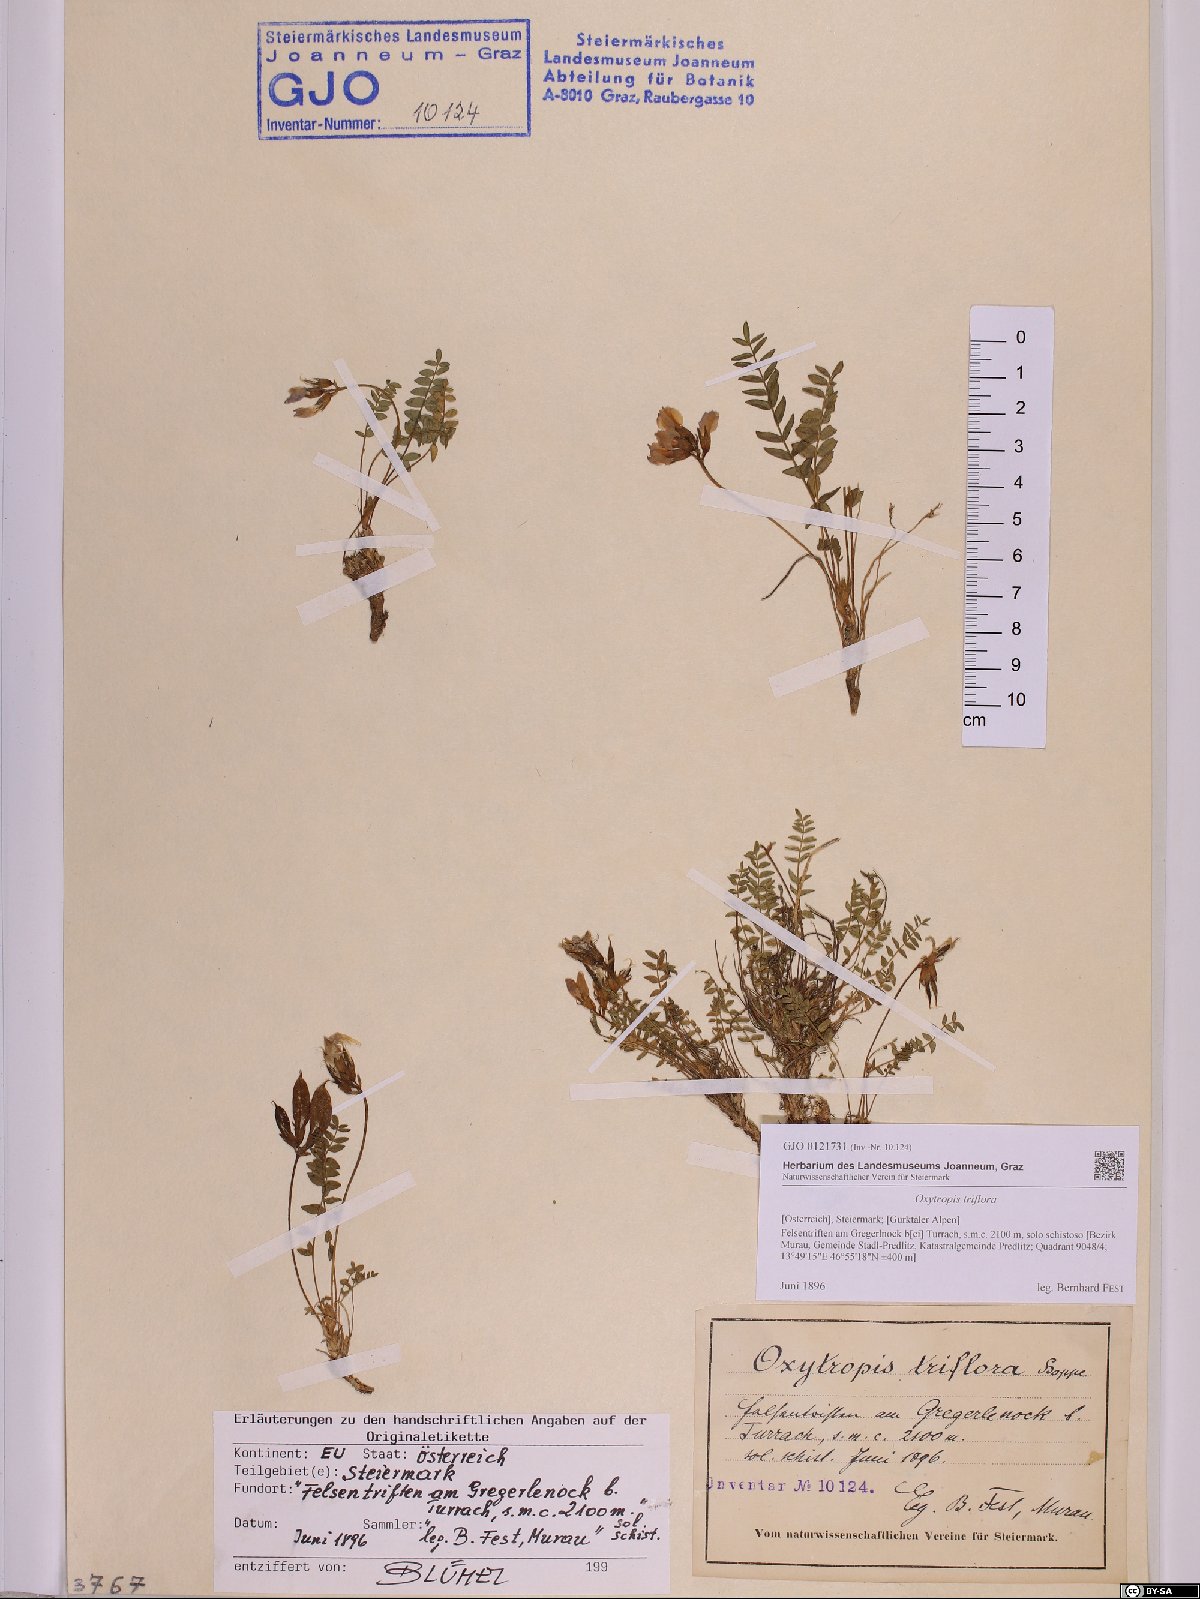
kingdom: Plantae
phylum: Tracheophyta
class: Magnoliopsida
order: Fabales
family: Fabaceae
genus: Oxytropis
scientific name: Oxytropis triflora
